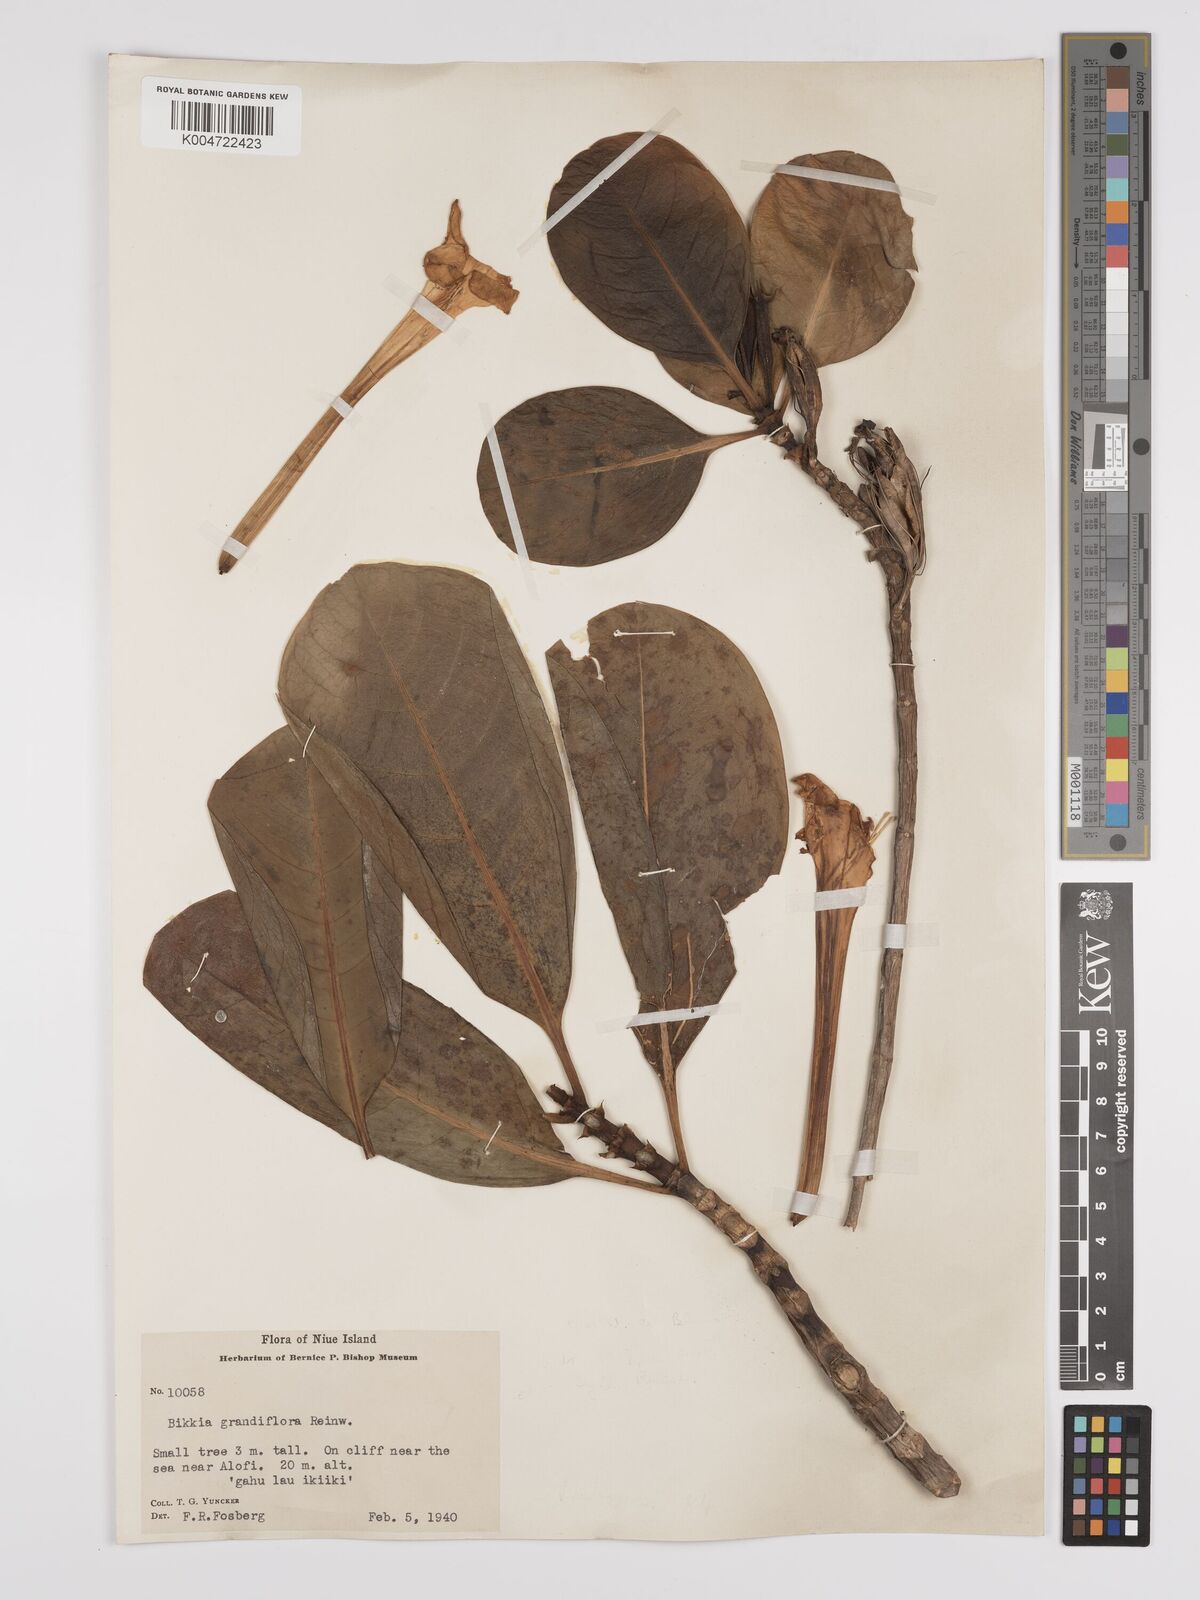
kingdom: Plantae
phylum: Tracheophyta
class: Magnoliopsida
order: Gentianales
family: Rubiaceae
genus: Bikkia
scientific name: Bikkia
